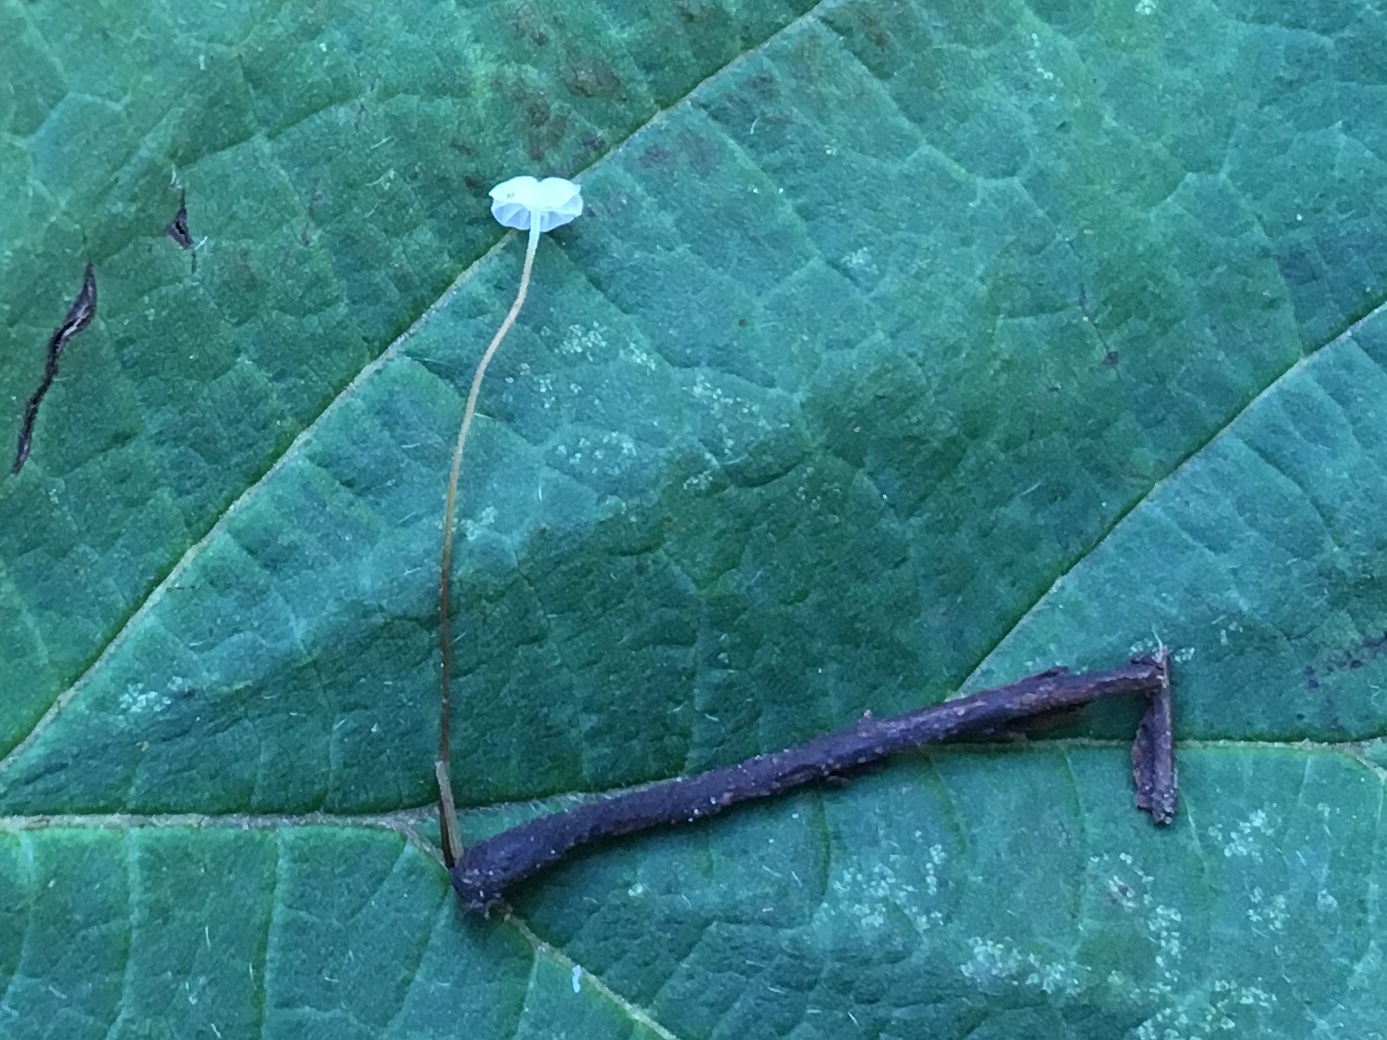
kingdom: Fungi
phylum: Basidiomycota
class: Agaricomycetes
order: Agaricales
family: Physalacriaceae
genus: Rhizomarasmius
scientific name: Rhizomarasmius setosus
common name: bøgeblads-bruskhat
